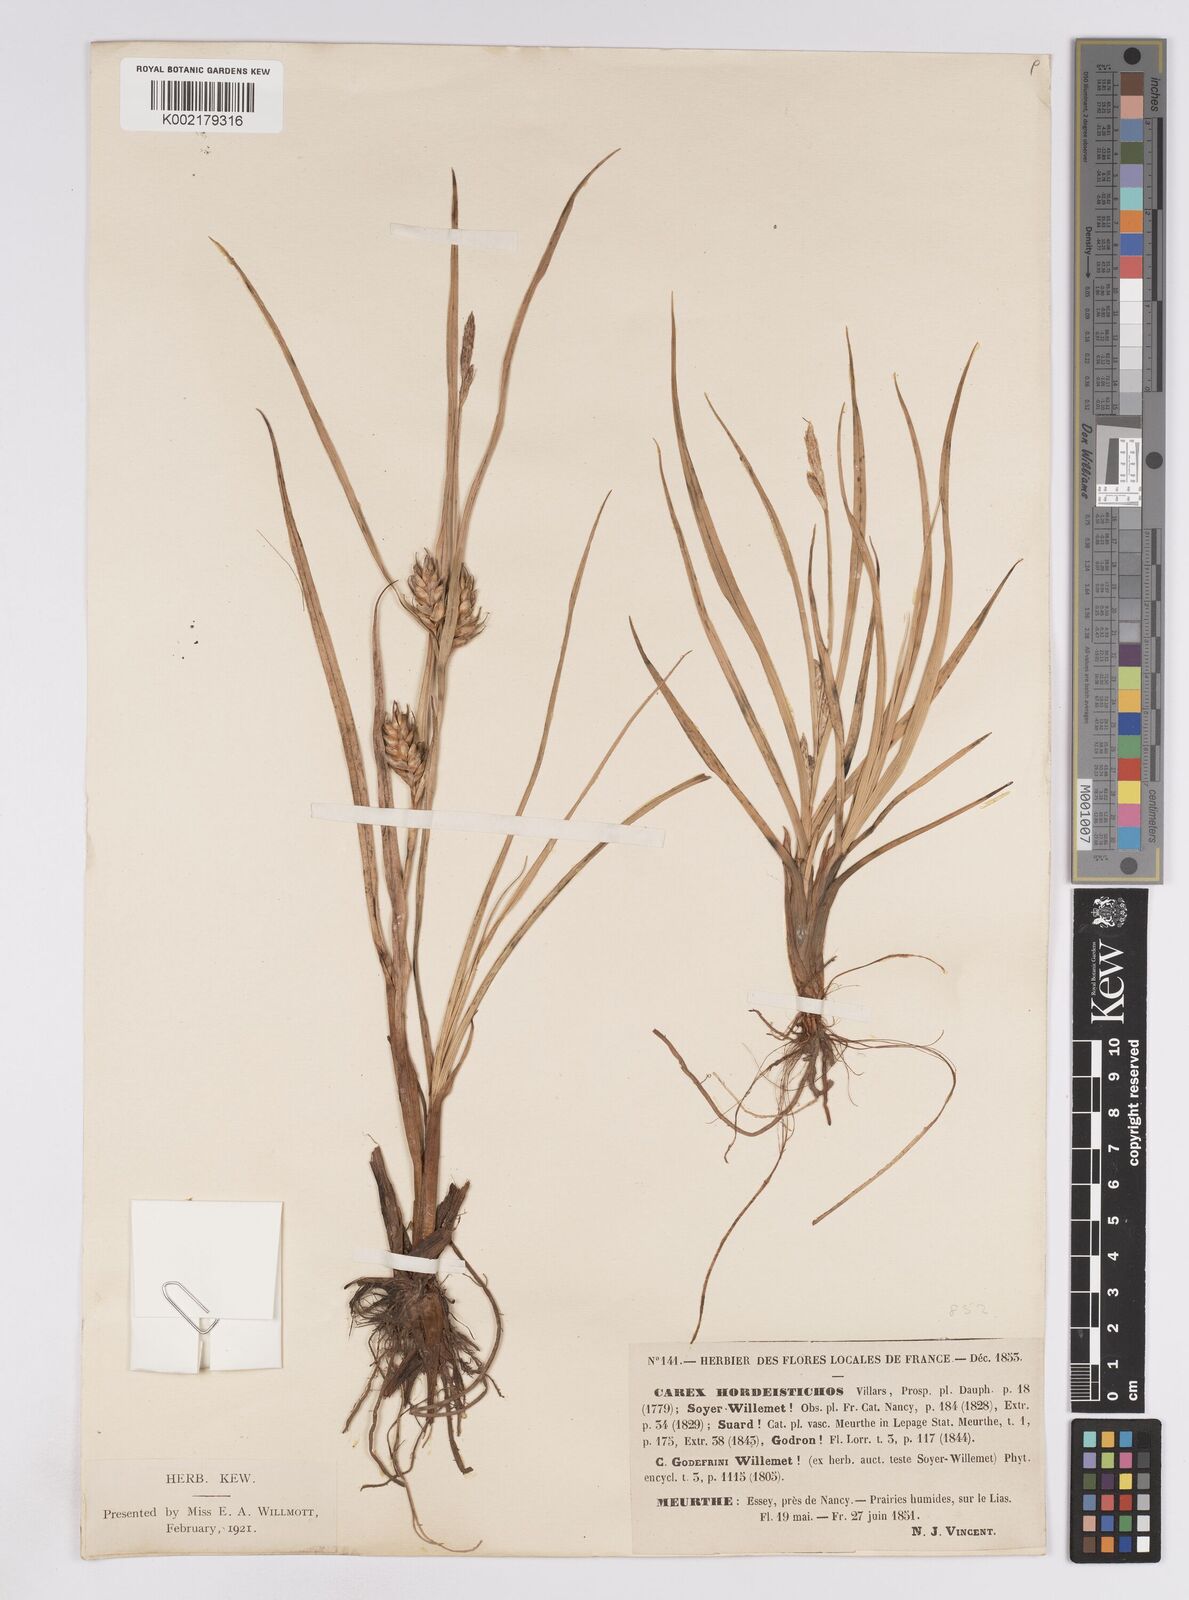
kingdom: Plantae
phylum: Tracheophyta
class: Liliopsida
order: Poales
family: Cyperaceae
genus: Carex
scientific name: Carex hordeistichos
